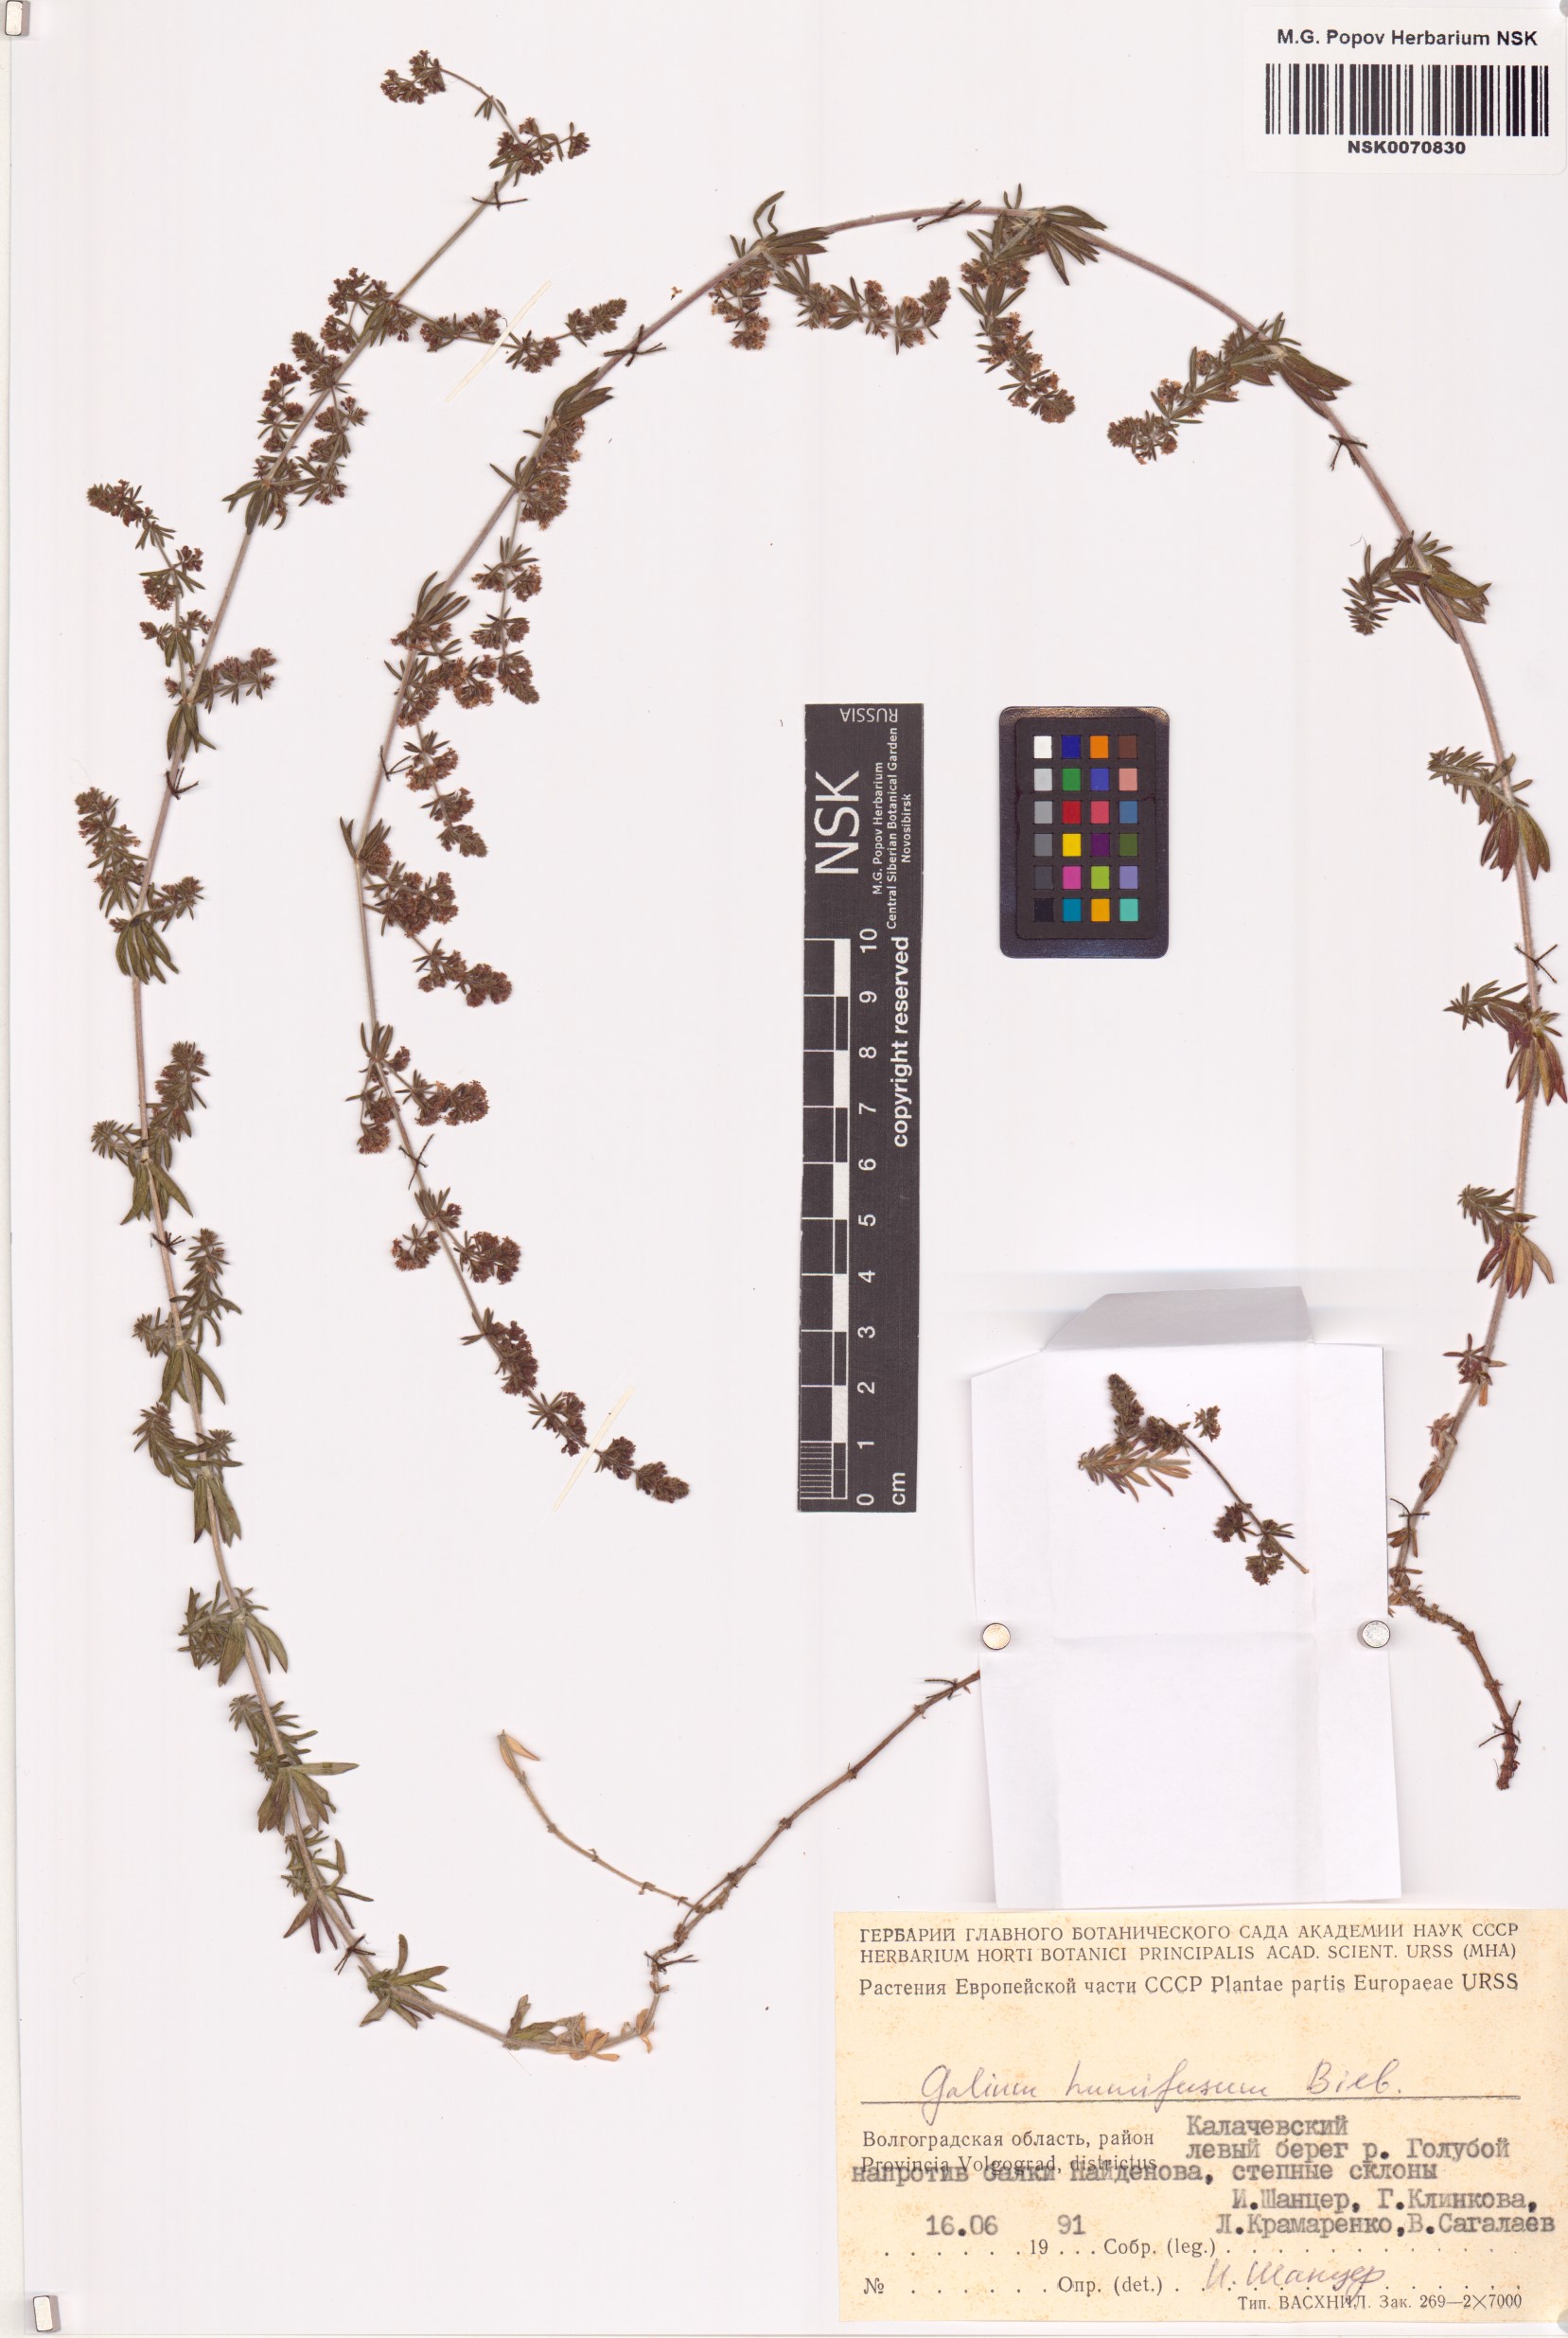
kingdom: Plantae
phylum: Tracheophyta
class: Magnoliopsida
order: Gentianales
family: Rubiaceae
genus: Galium
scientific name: Galium humifusum
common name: Spreading bedstraw
